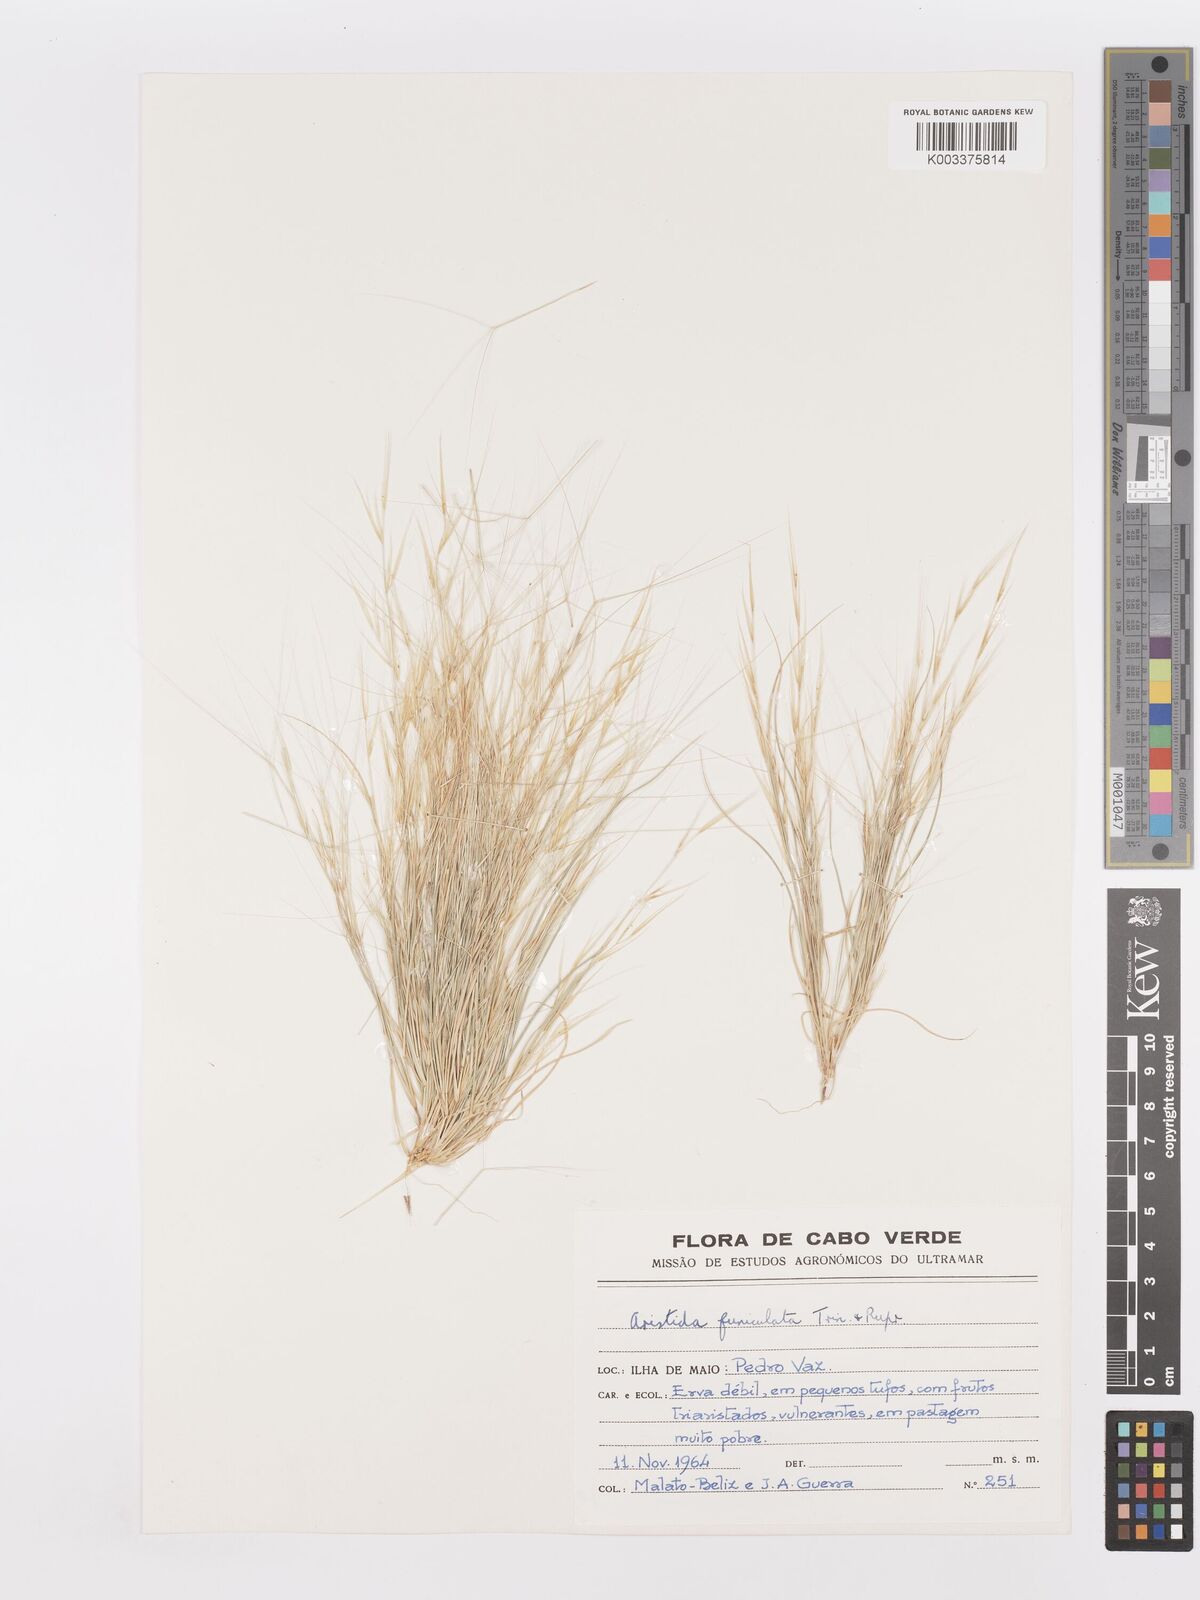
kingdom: Plantae
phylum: Tracheophyta
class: Liliopsida
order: Poales
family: Poaceae
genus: Aristida
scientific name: Aristida funiculata
